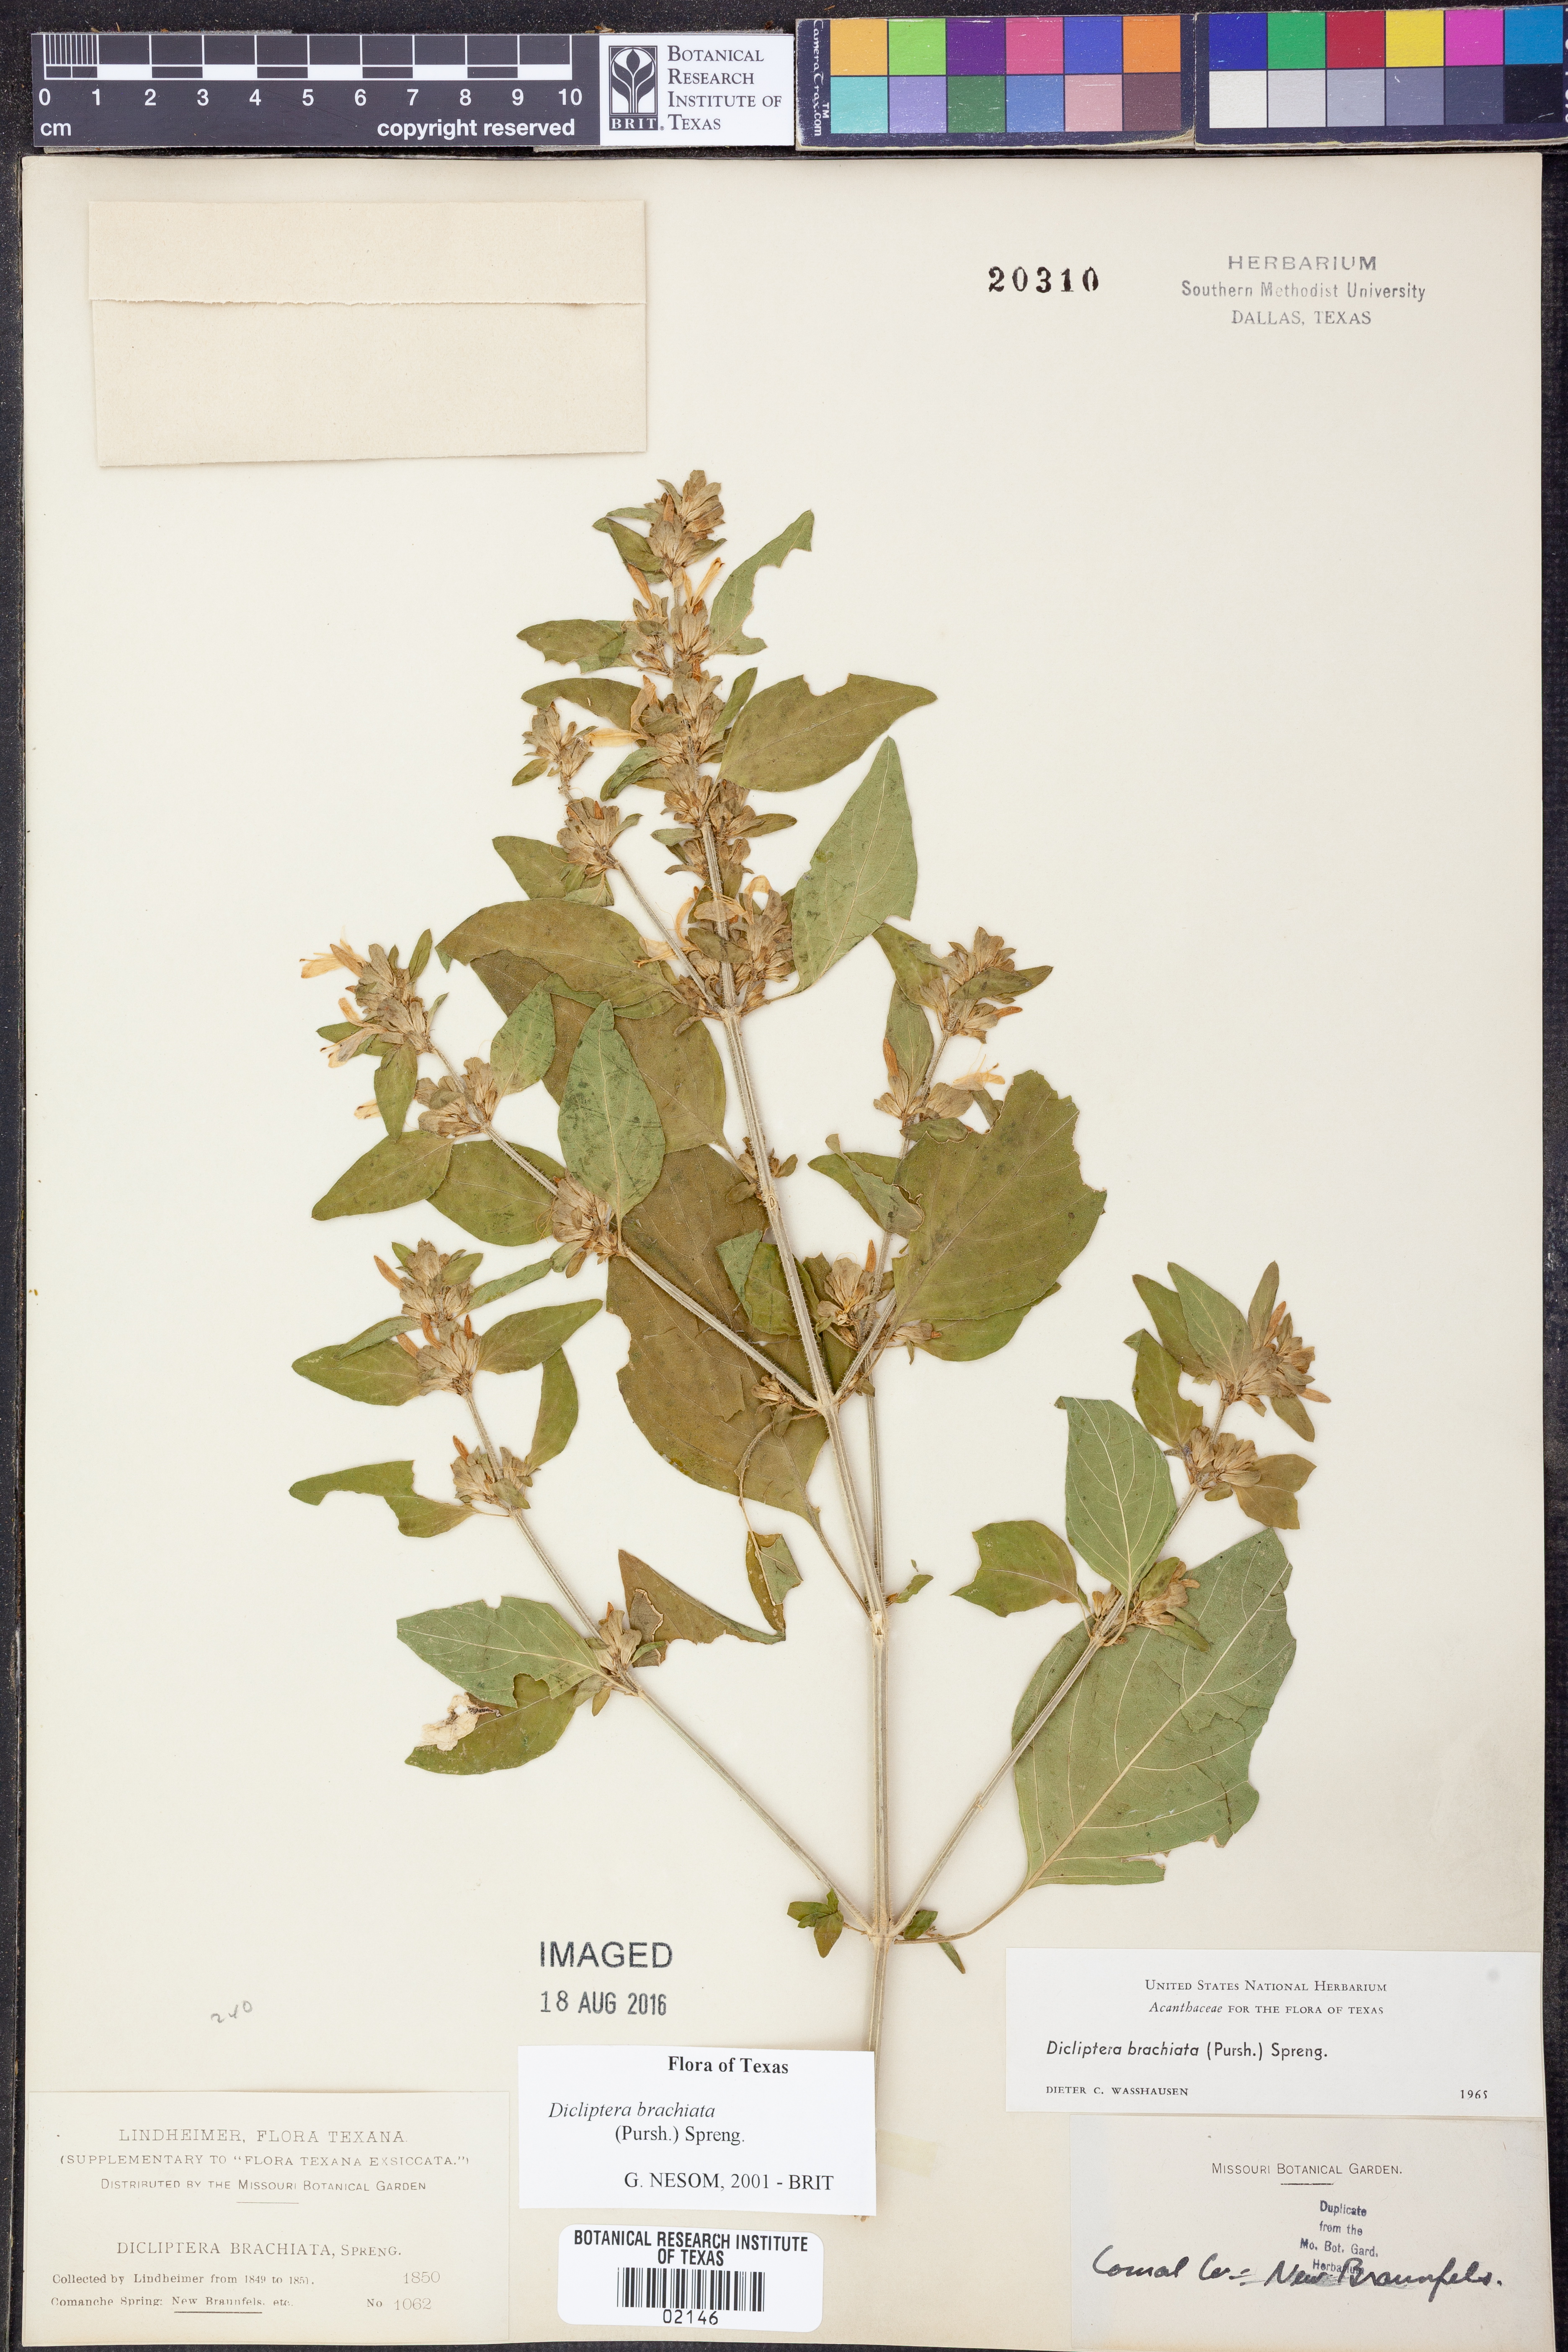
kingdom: Plantae
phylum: Tracheophyta
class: Magnoliopsida
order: Lamiales
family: Acanthaceae
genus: Dicliptera
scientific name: Dicliptera brachiata
